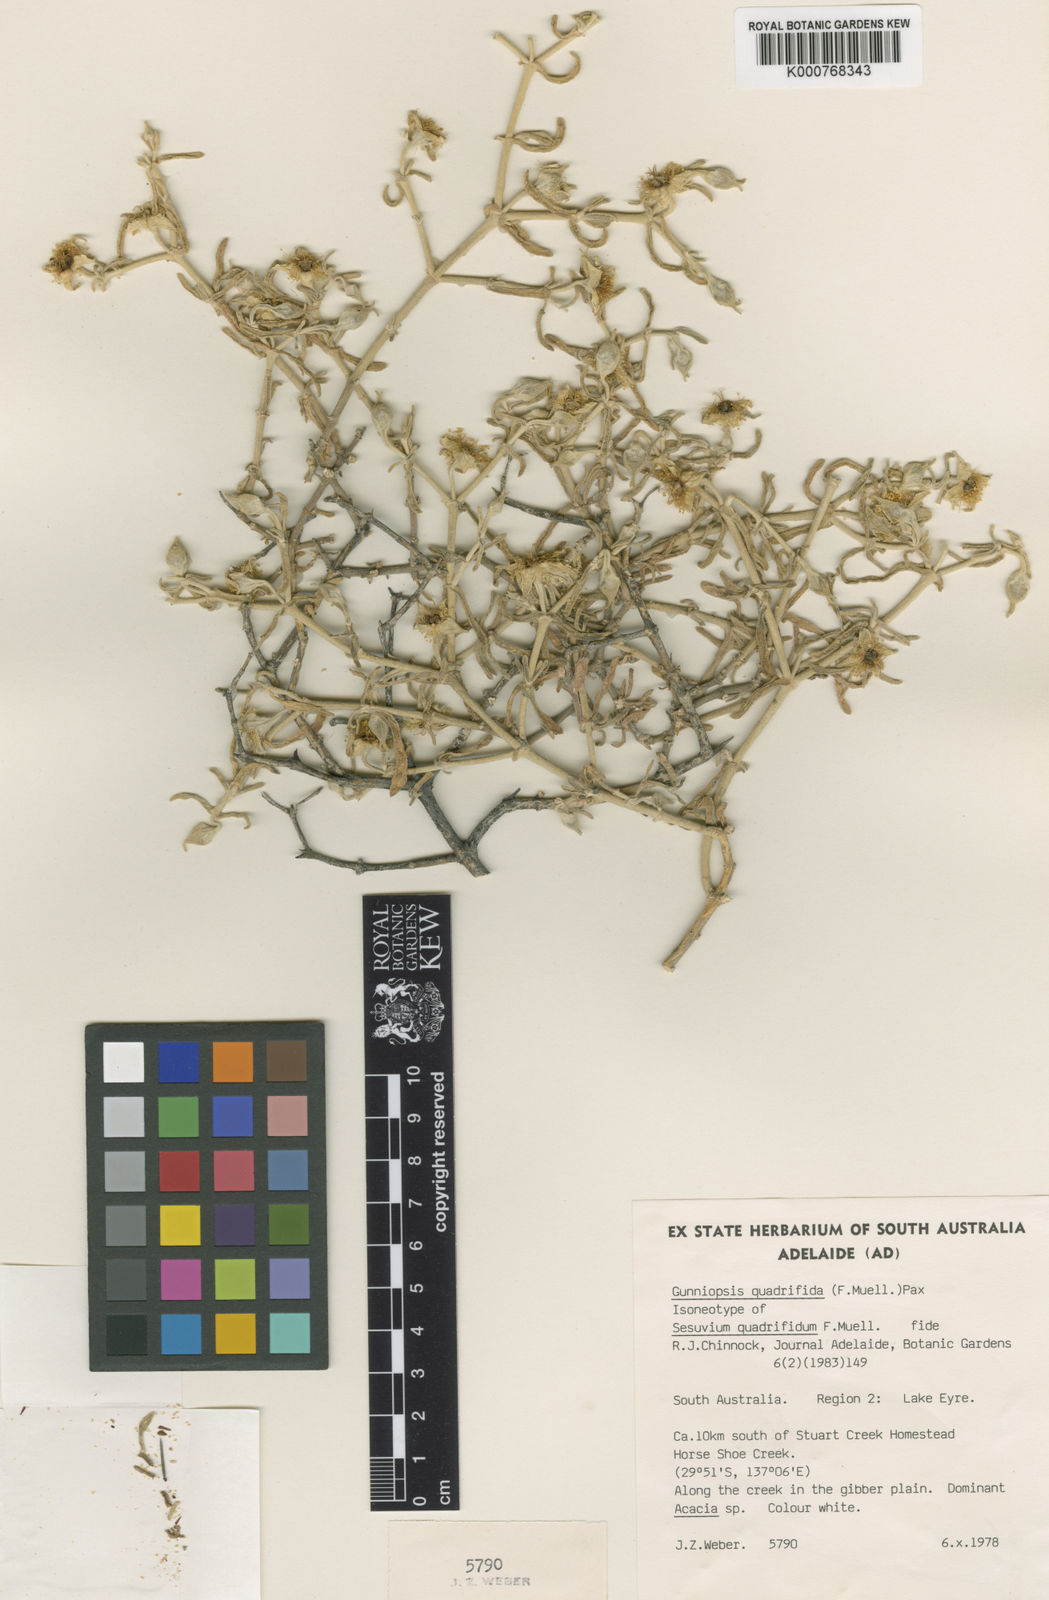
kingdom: Plantae
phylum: Tracheophyta
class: Magnoliopsida
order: Caryophyllales
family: Aizoaceae
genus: Gunniopsis
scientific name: Gunniopsis quadrifida
